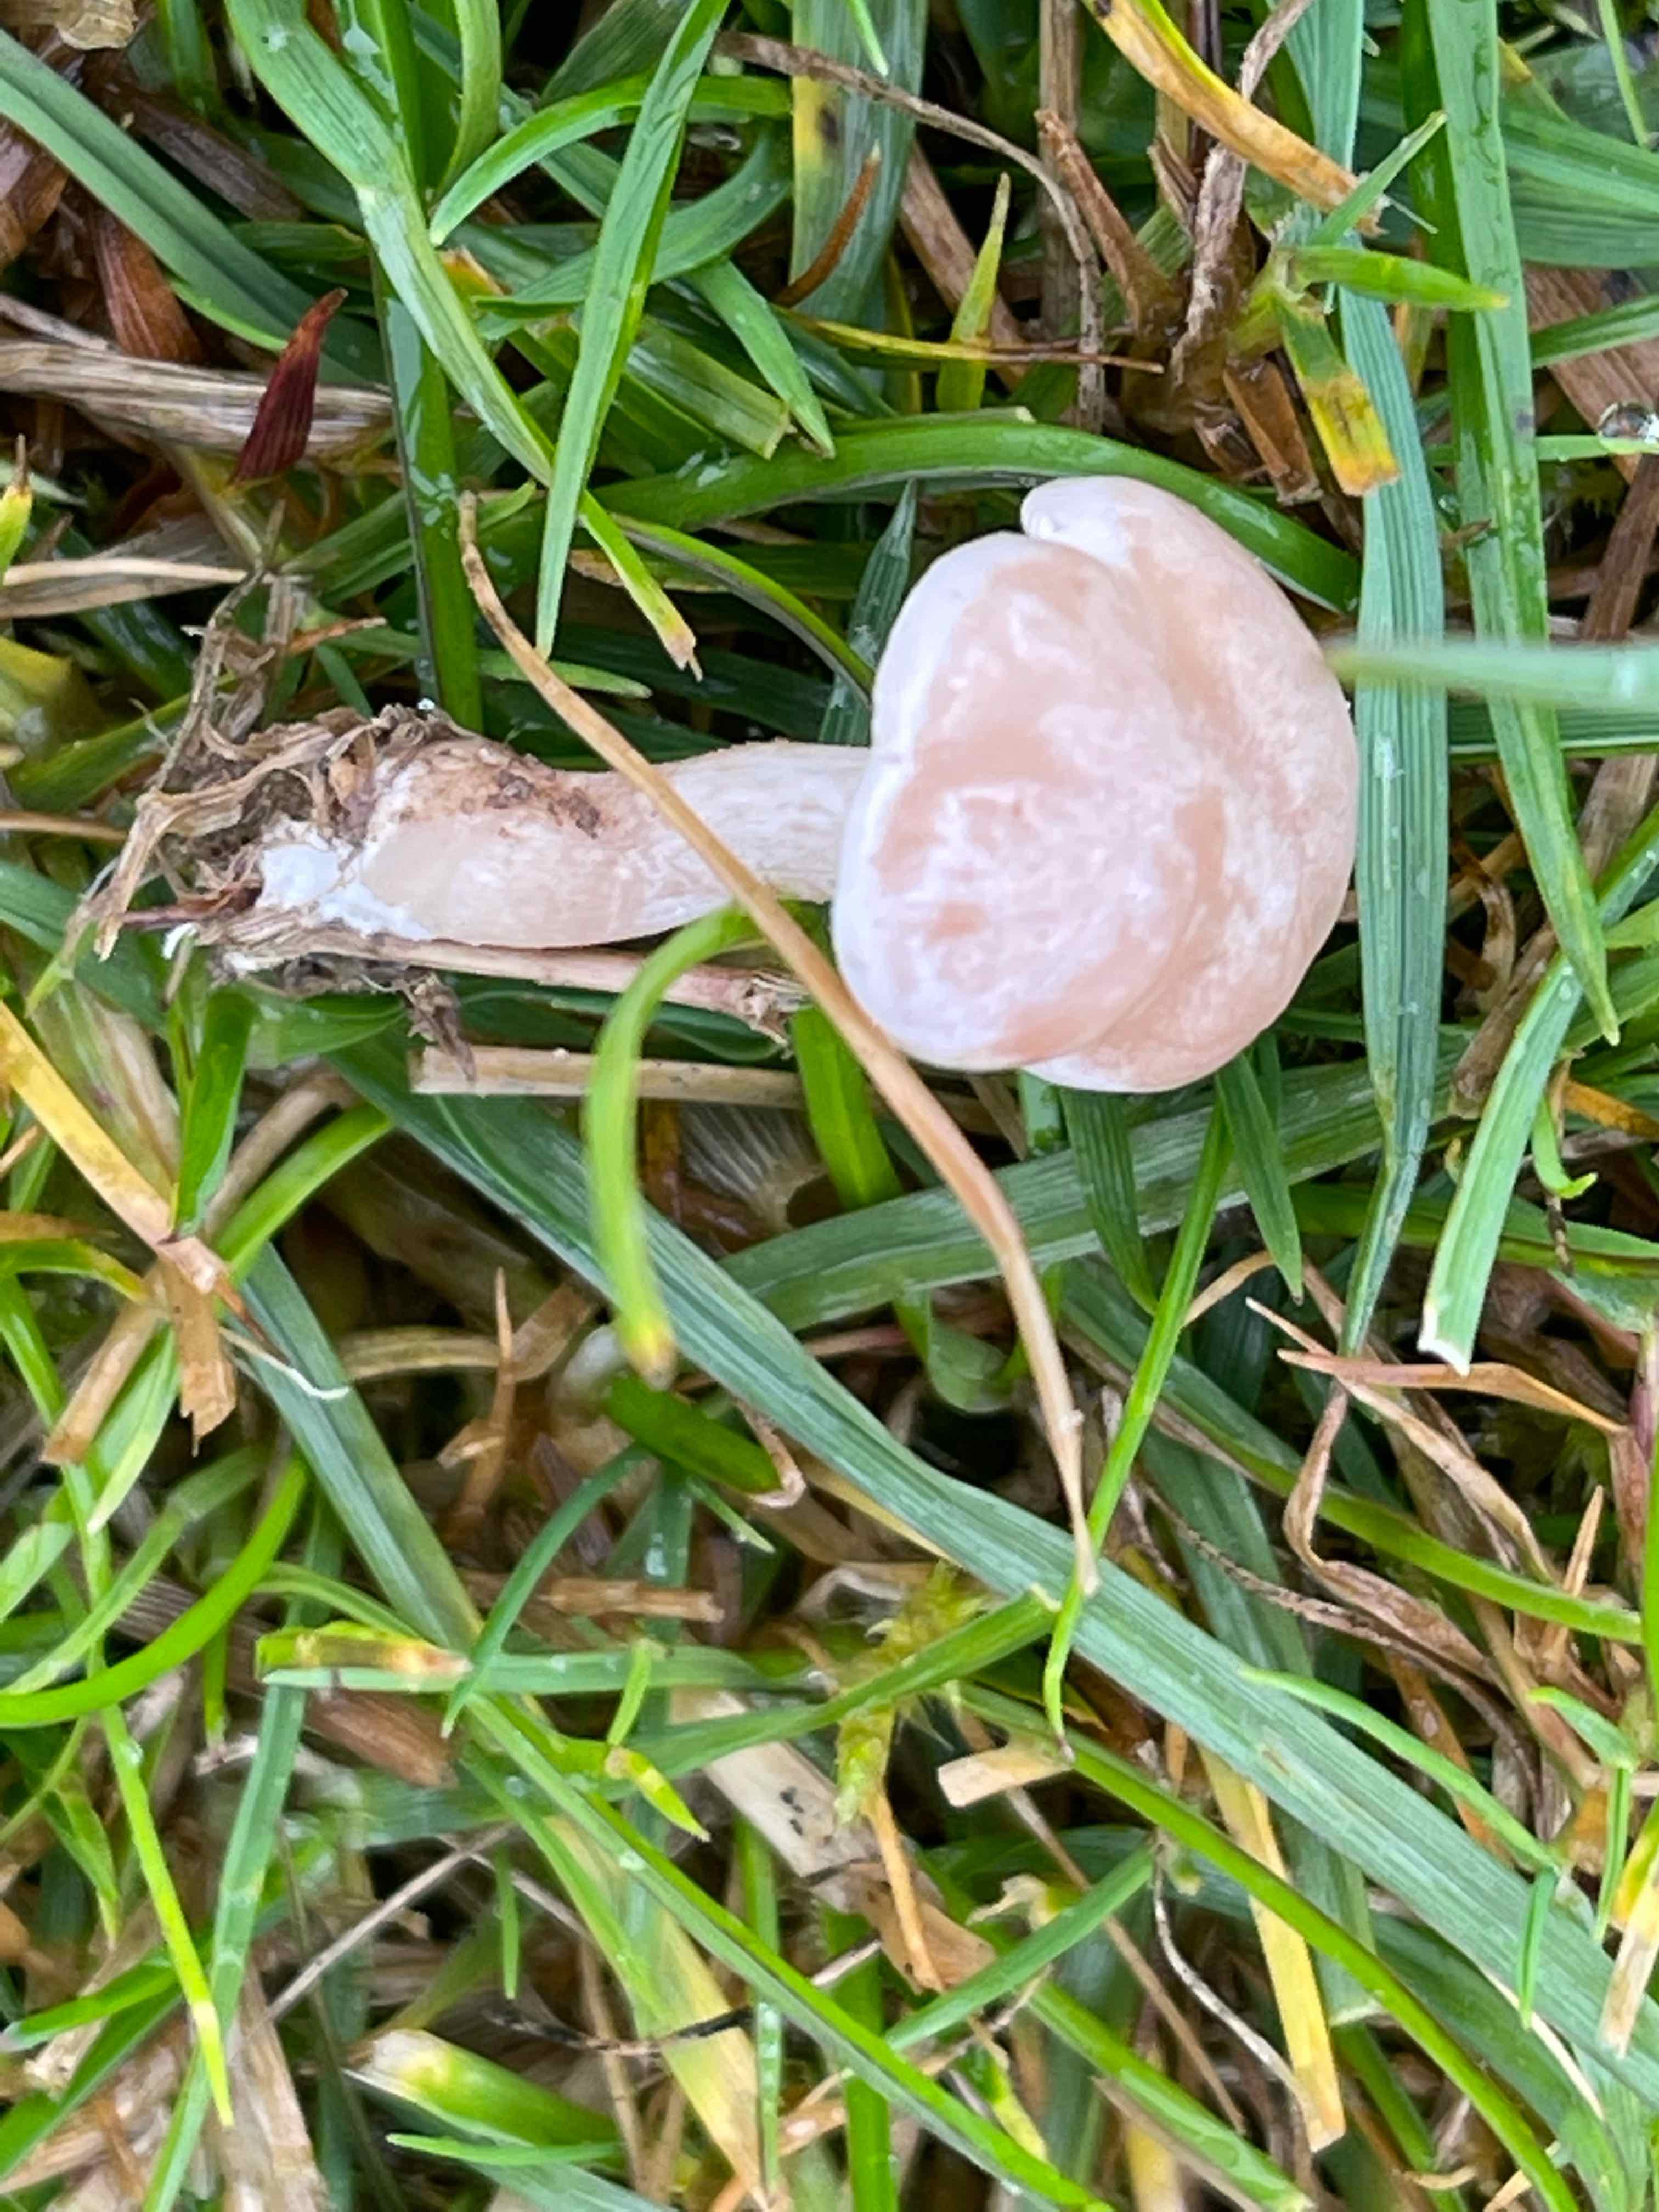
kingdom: Fungi
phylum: Basidiomycota
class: Agaricomycetes
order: Agaricales
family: Tricholomataceae
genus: Clitocybe
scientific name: Clitocybe rivulosa
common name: eng-tragthat
